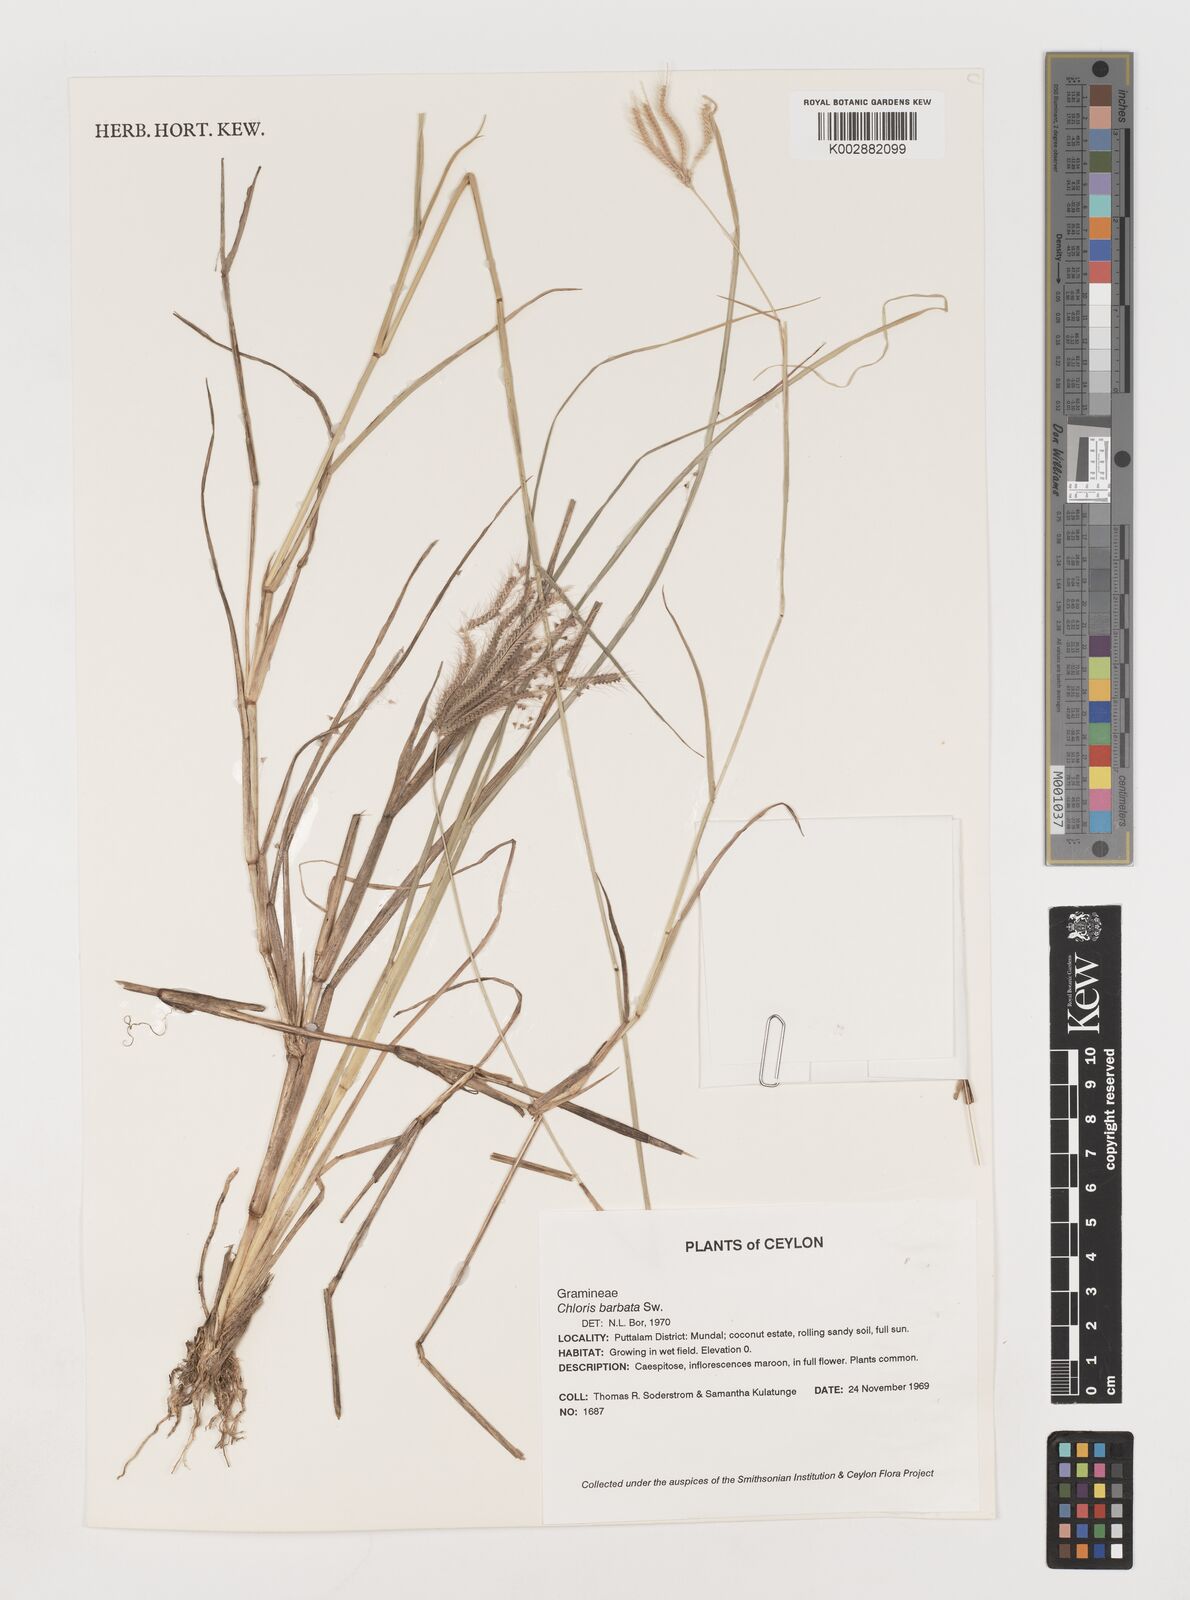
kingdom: Plantae
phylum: Tracheophyta
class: Liliopsida
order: Poales
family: Poaceae
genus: Chloris
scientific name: Chloris barbata
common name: Swollen fingergrass
